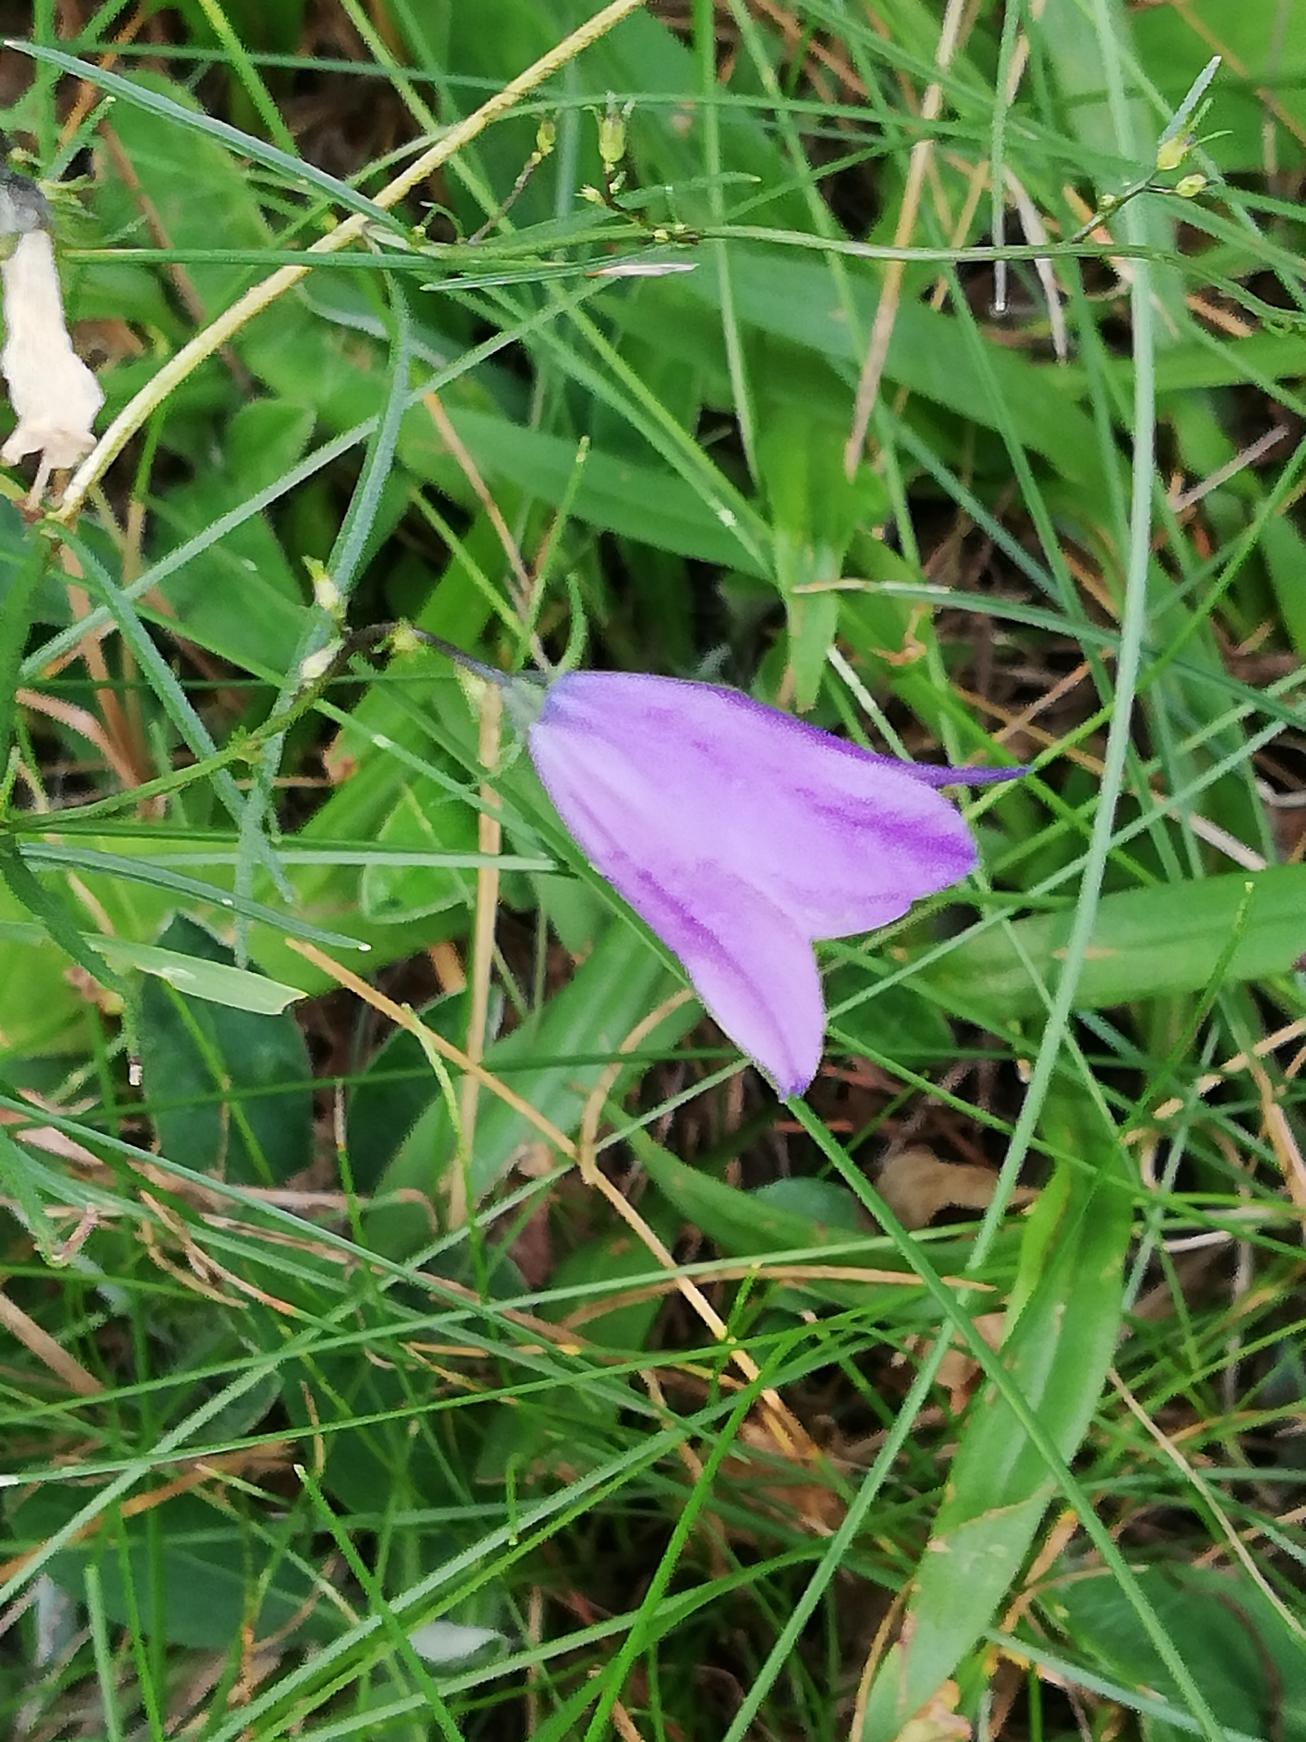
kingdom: Plantae
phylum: Tracheophyta
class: Magnoliopsida
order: Asterales
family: Campanulaceae
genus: Campanula
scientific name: Campanula rotundifolia
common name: Liden klokke
